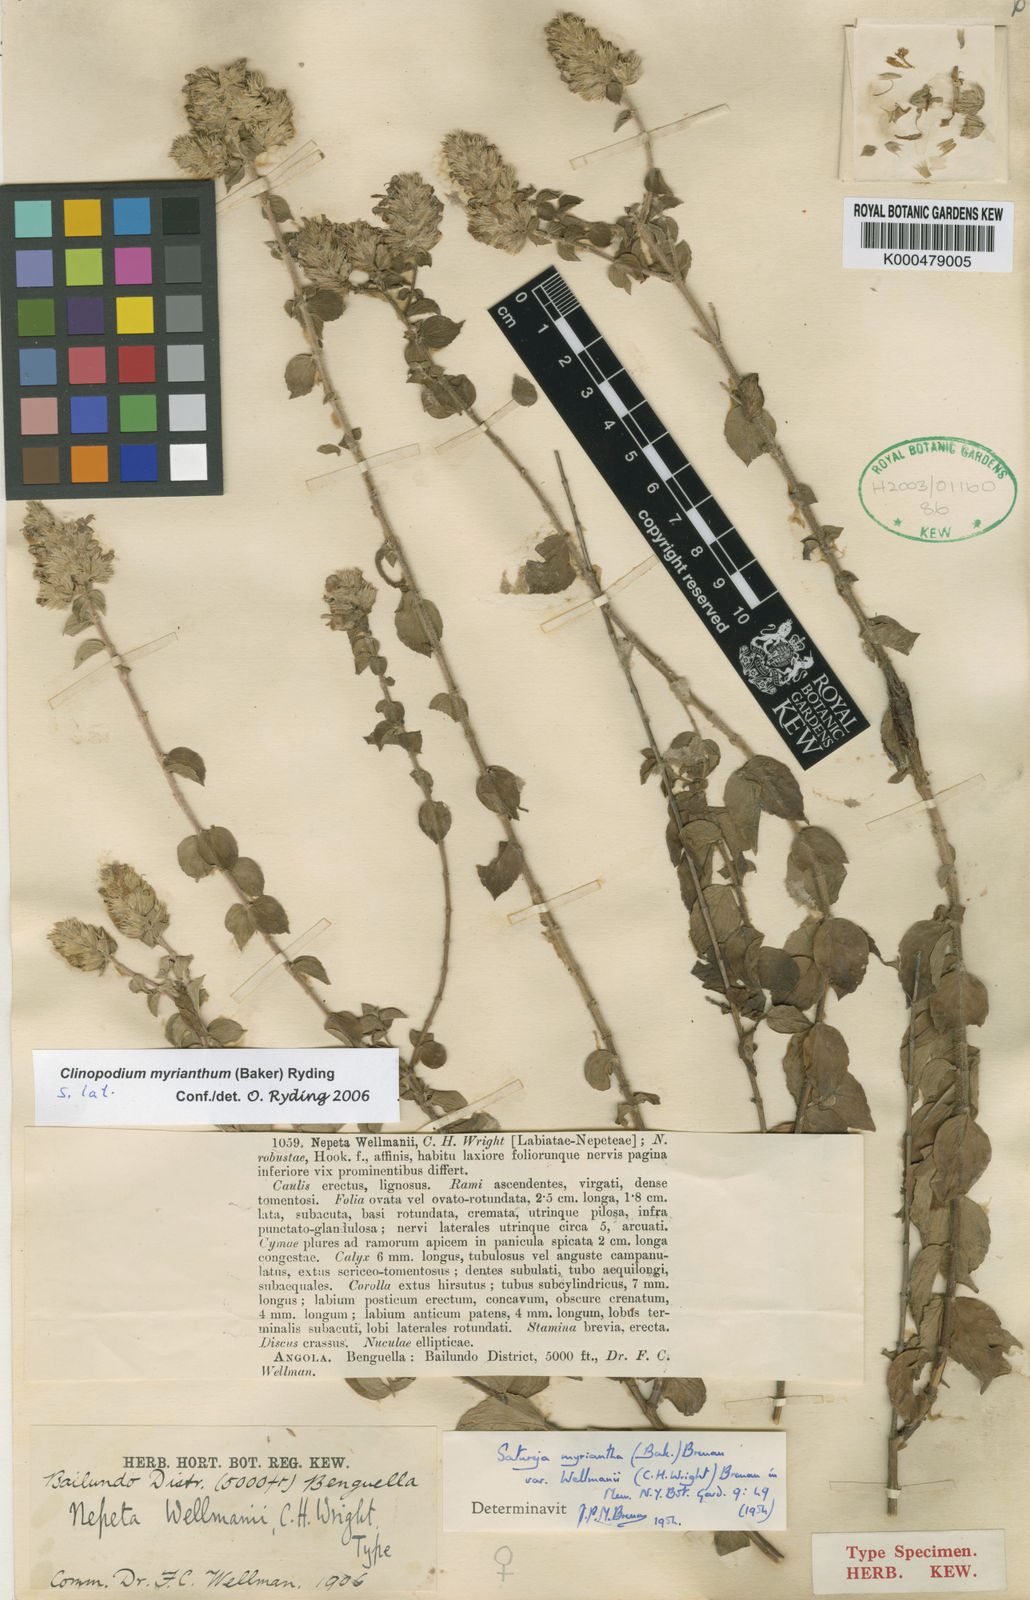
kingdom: Plantae
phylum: Tracheophyta
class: Magnoliopsida
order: Lamiales
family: Lamiaceae
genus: Clinopodium
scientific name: Clinopodium myrianthum
